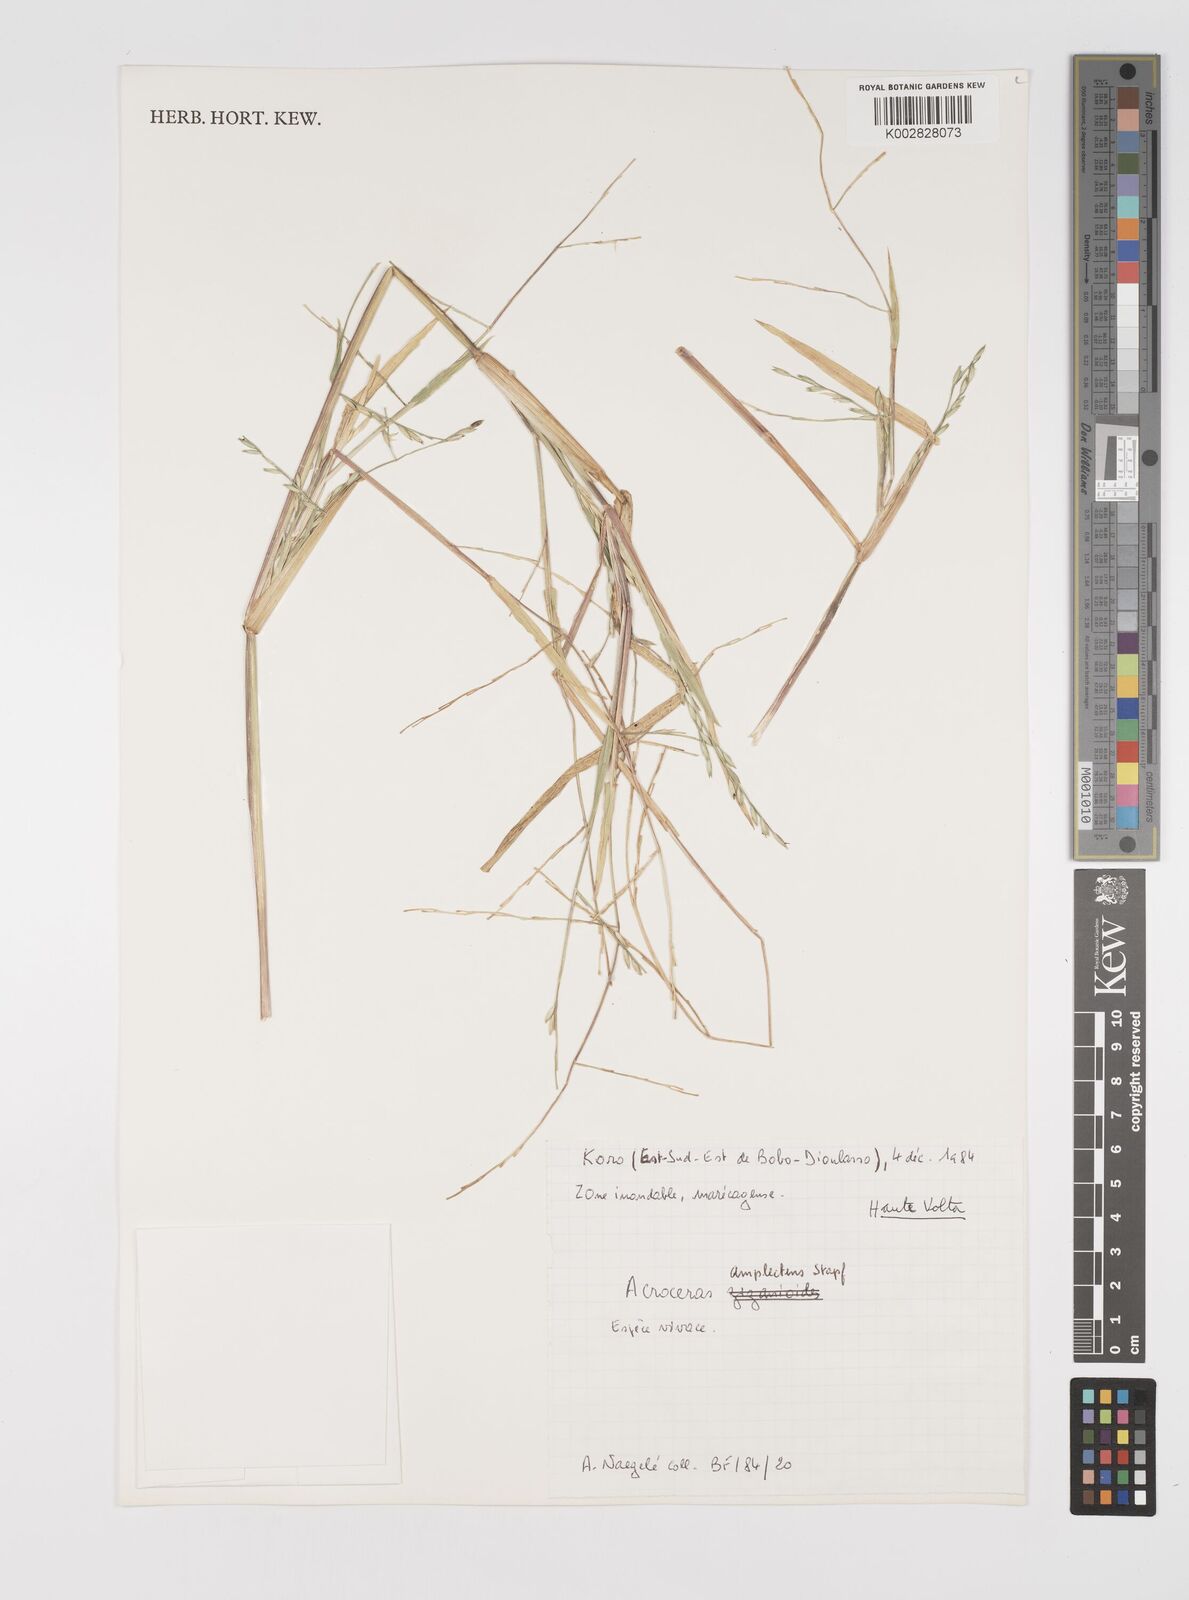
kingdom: Plantae
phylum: Tracheophyta
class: Liliopsida
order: Poales
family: Poaceae
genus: Acroceras
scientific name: Acroceras amplectens
